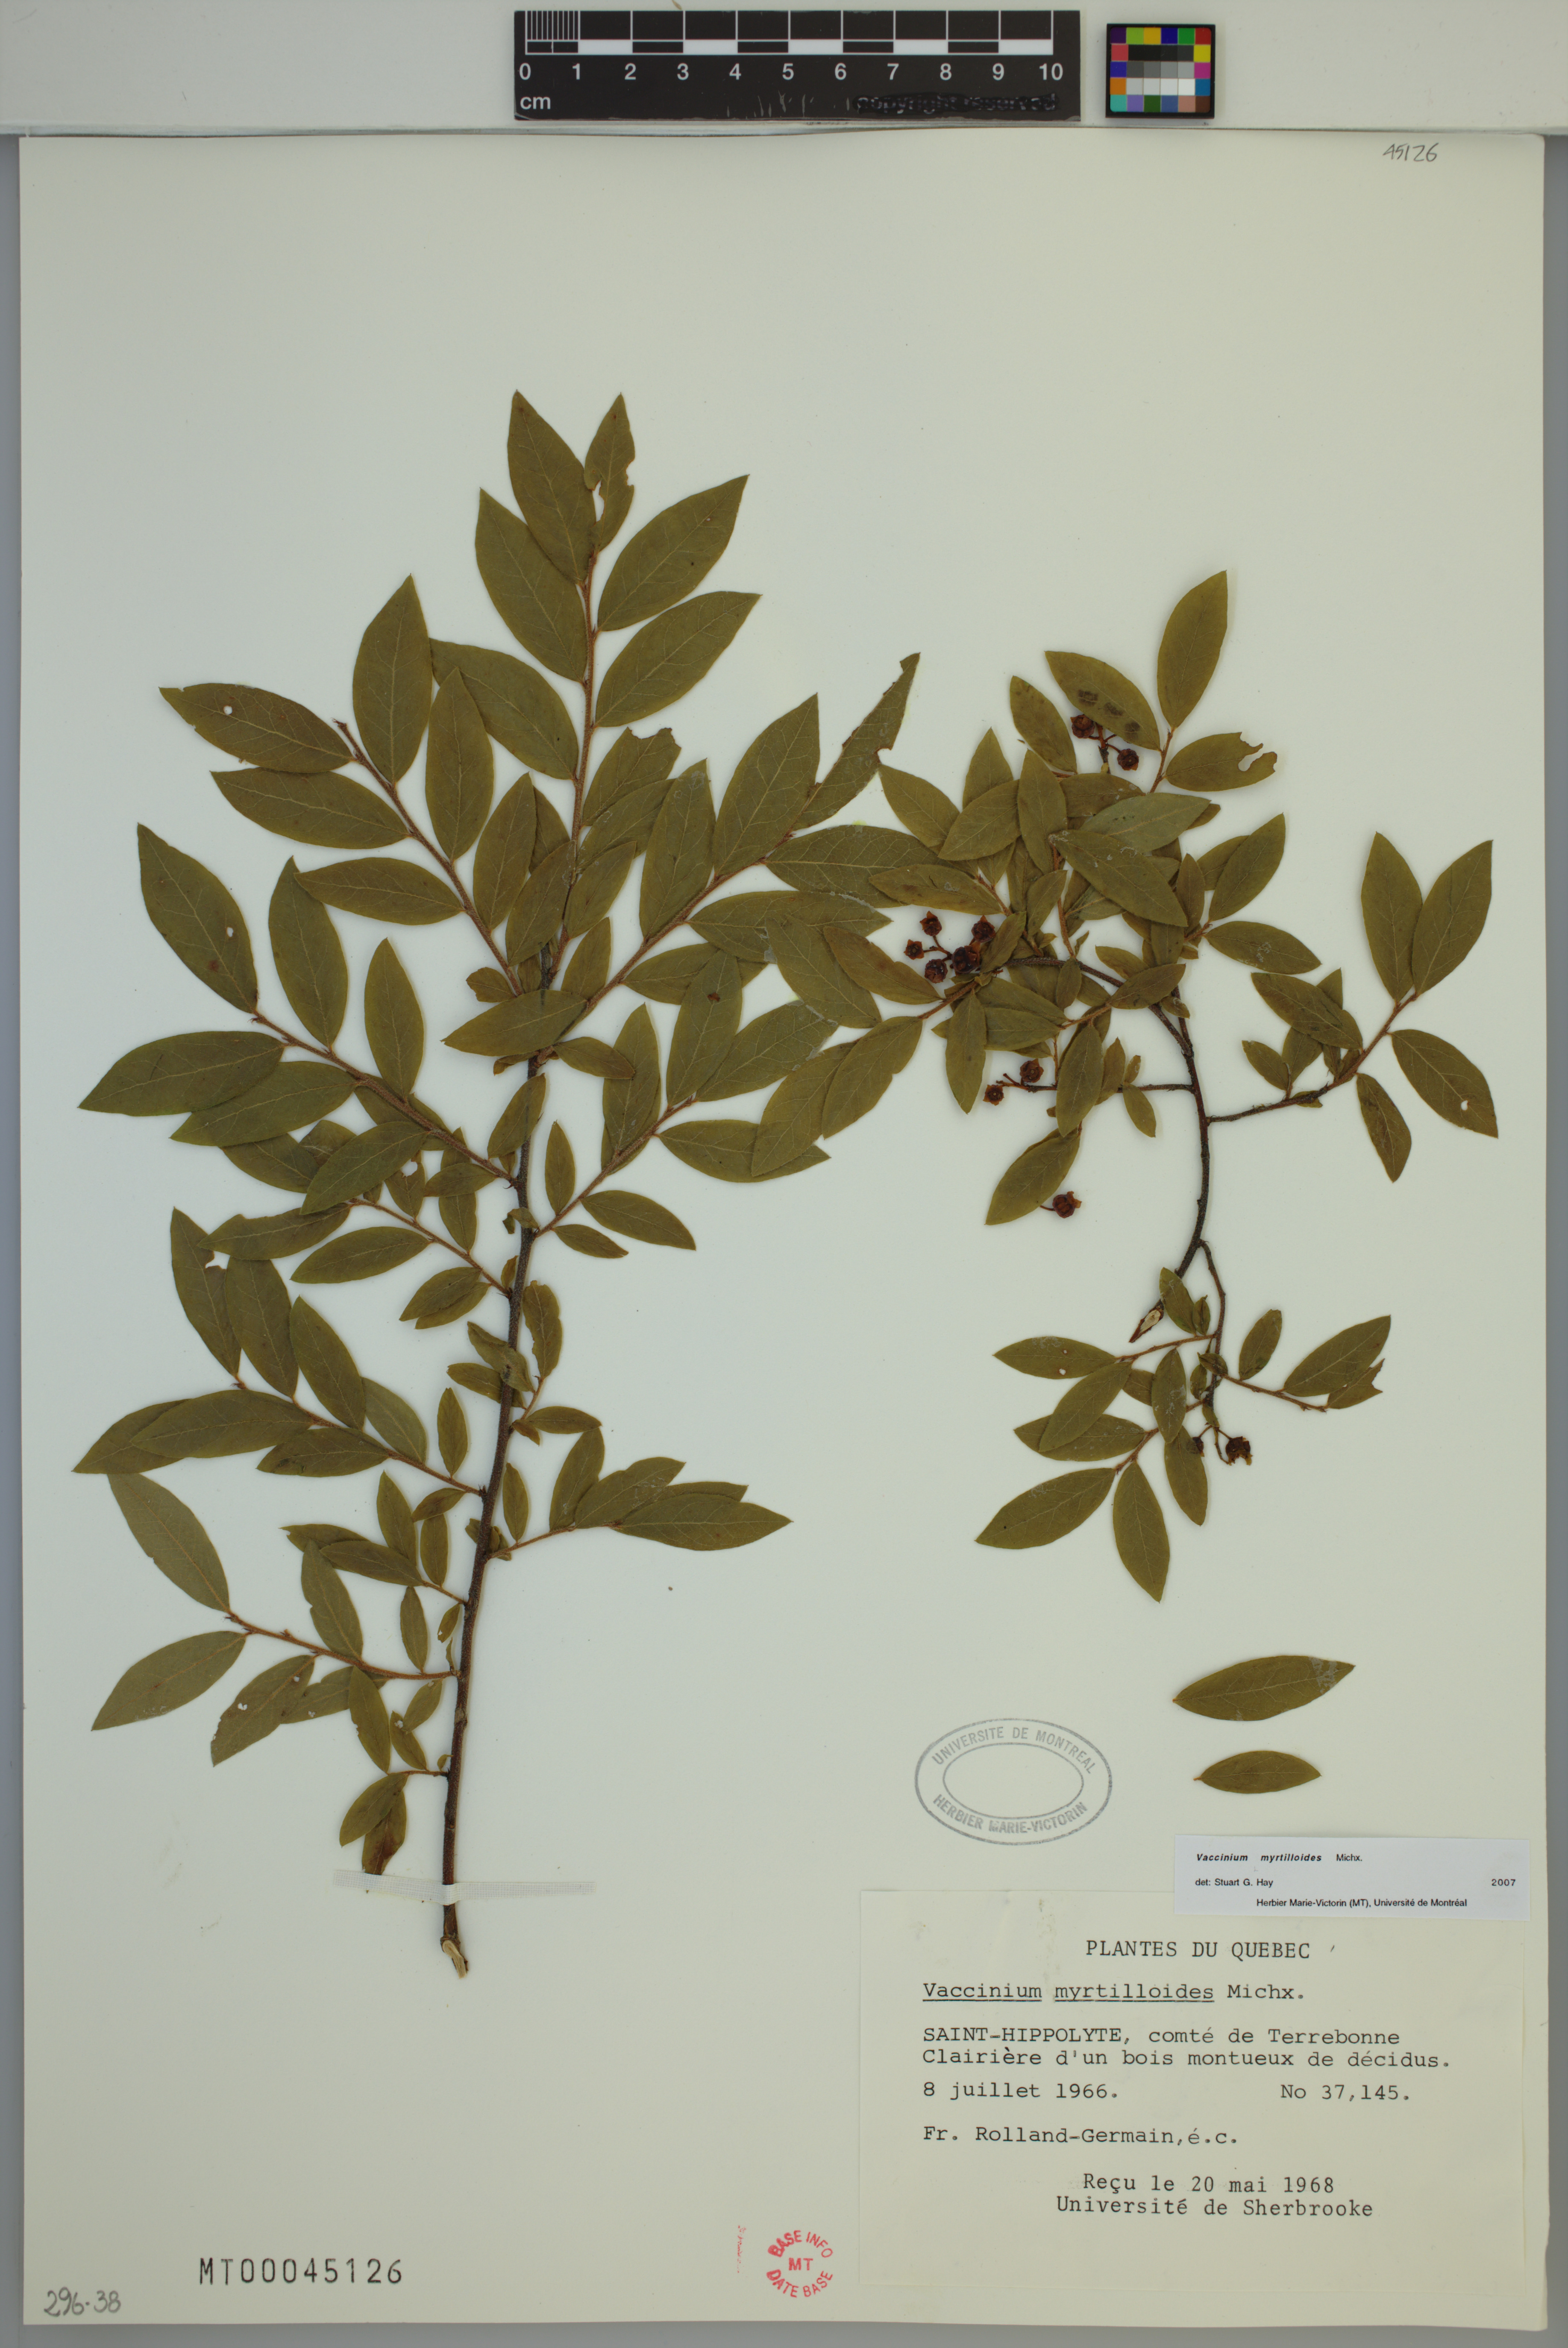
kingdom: Plantae
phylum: Tracheophyta
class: Magnoliopsida
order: Ericales
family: Ericaceae
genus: Vaccinium
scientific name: Vaccinium myrtilloides
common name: Canada blueberry
